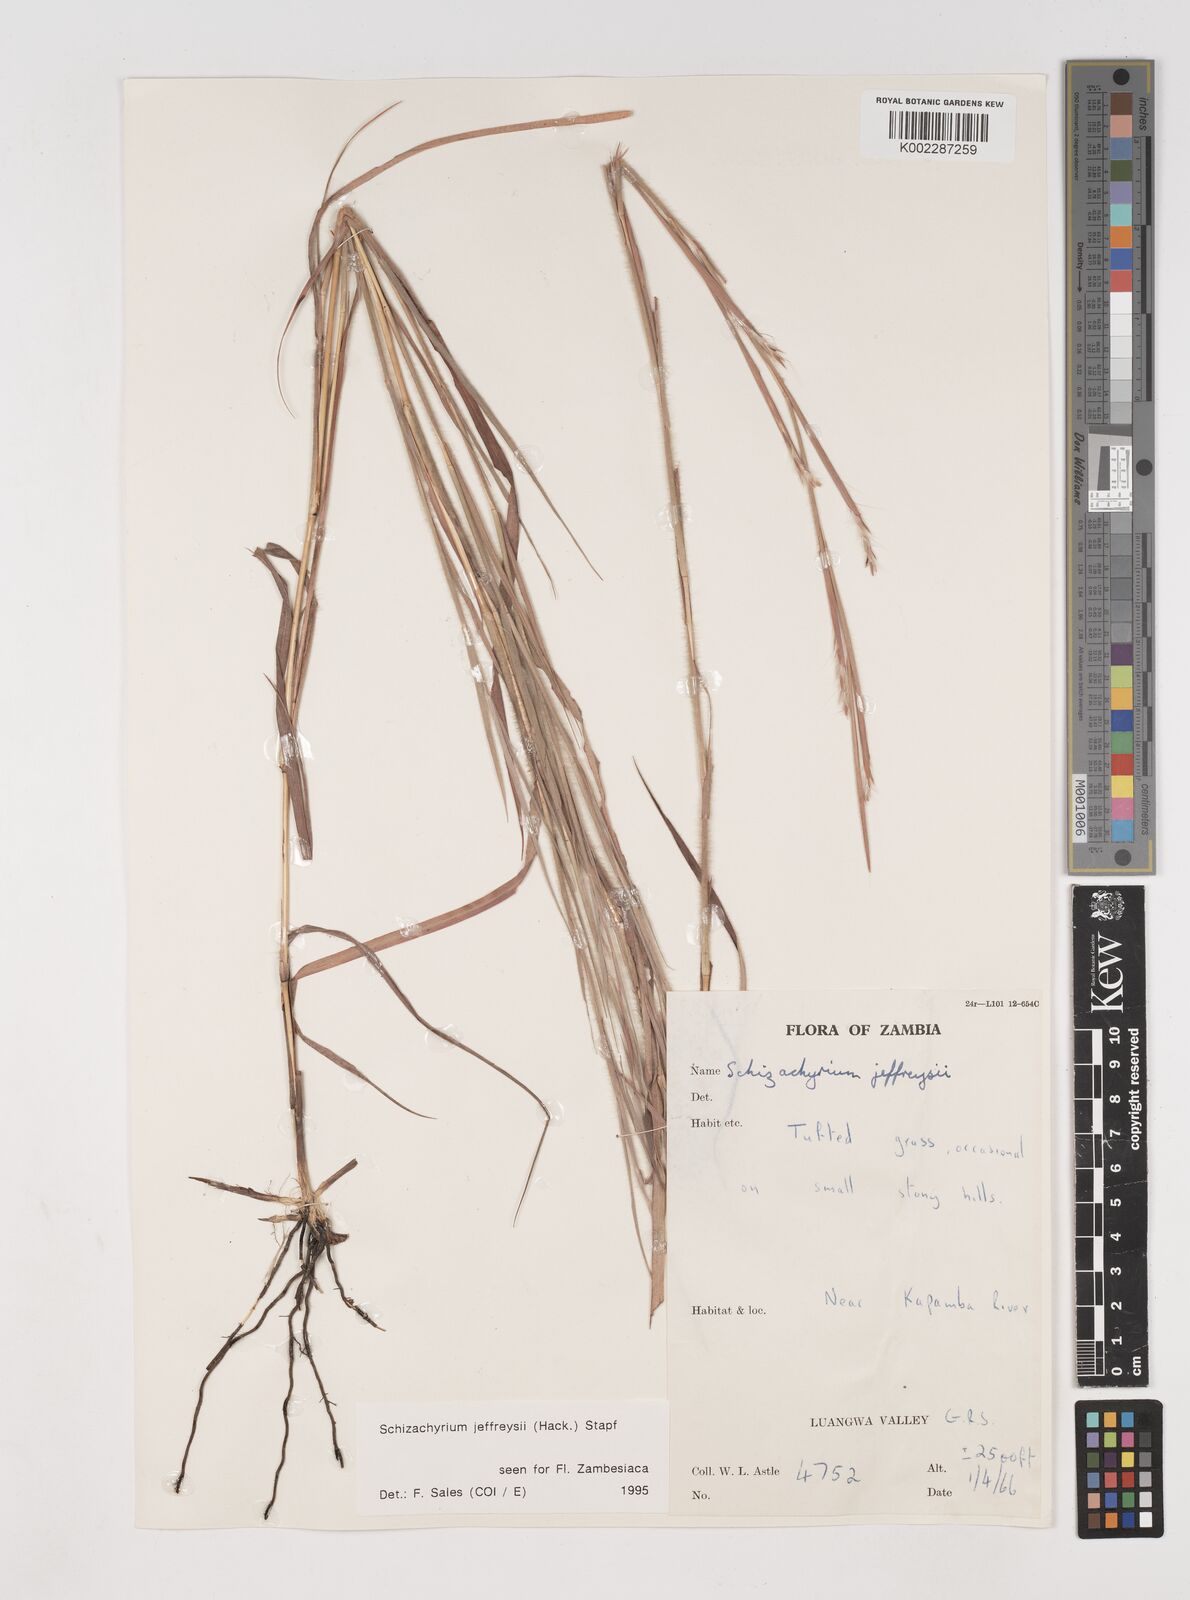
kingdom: Plantae
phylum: Tracheophyta
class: Liliopsida
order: Poales
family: Poaceae
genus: Schizachyrium
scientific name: Schizachyrium jeffreysii
